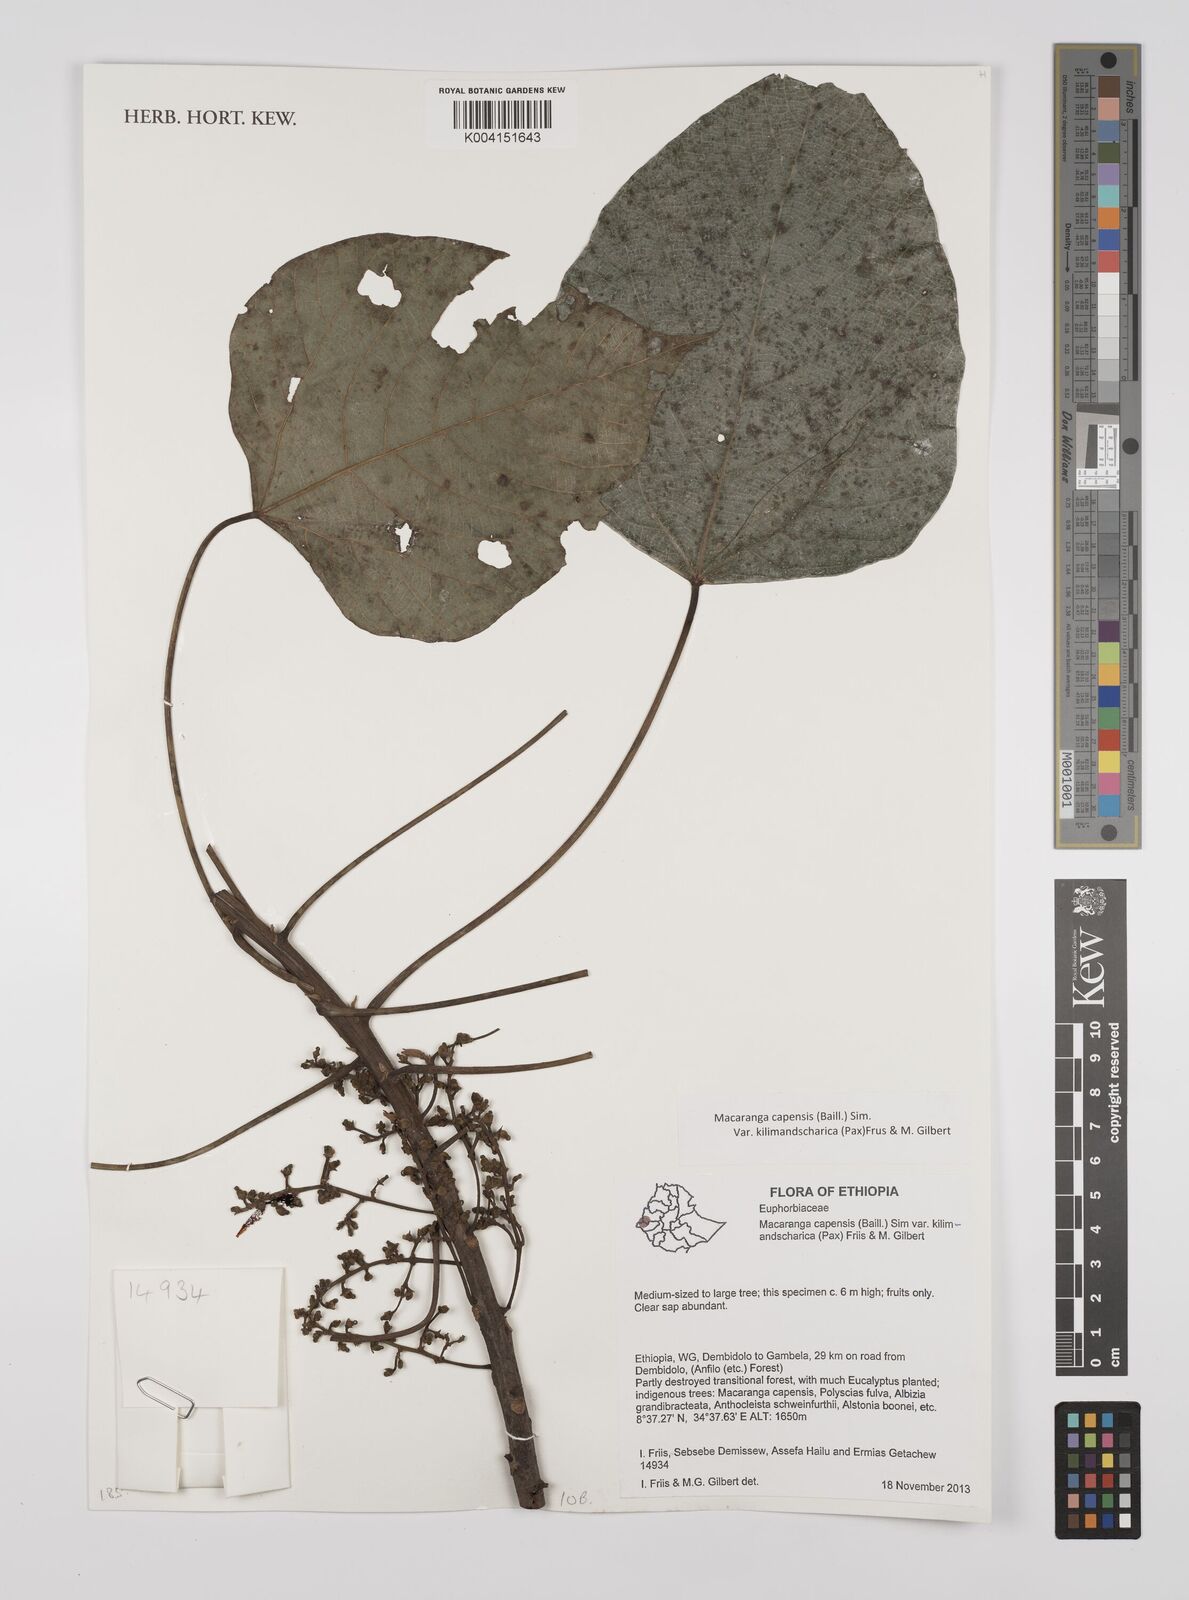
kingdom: Plantae
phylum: Tracheophyta
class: Magnoliopsida
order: Malpighiales
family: Euphorbiaceae
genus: Macaranga
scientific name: Macaranga capensis
